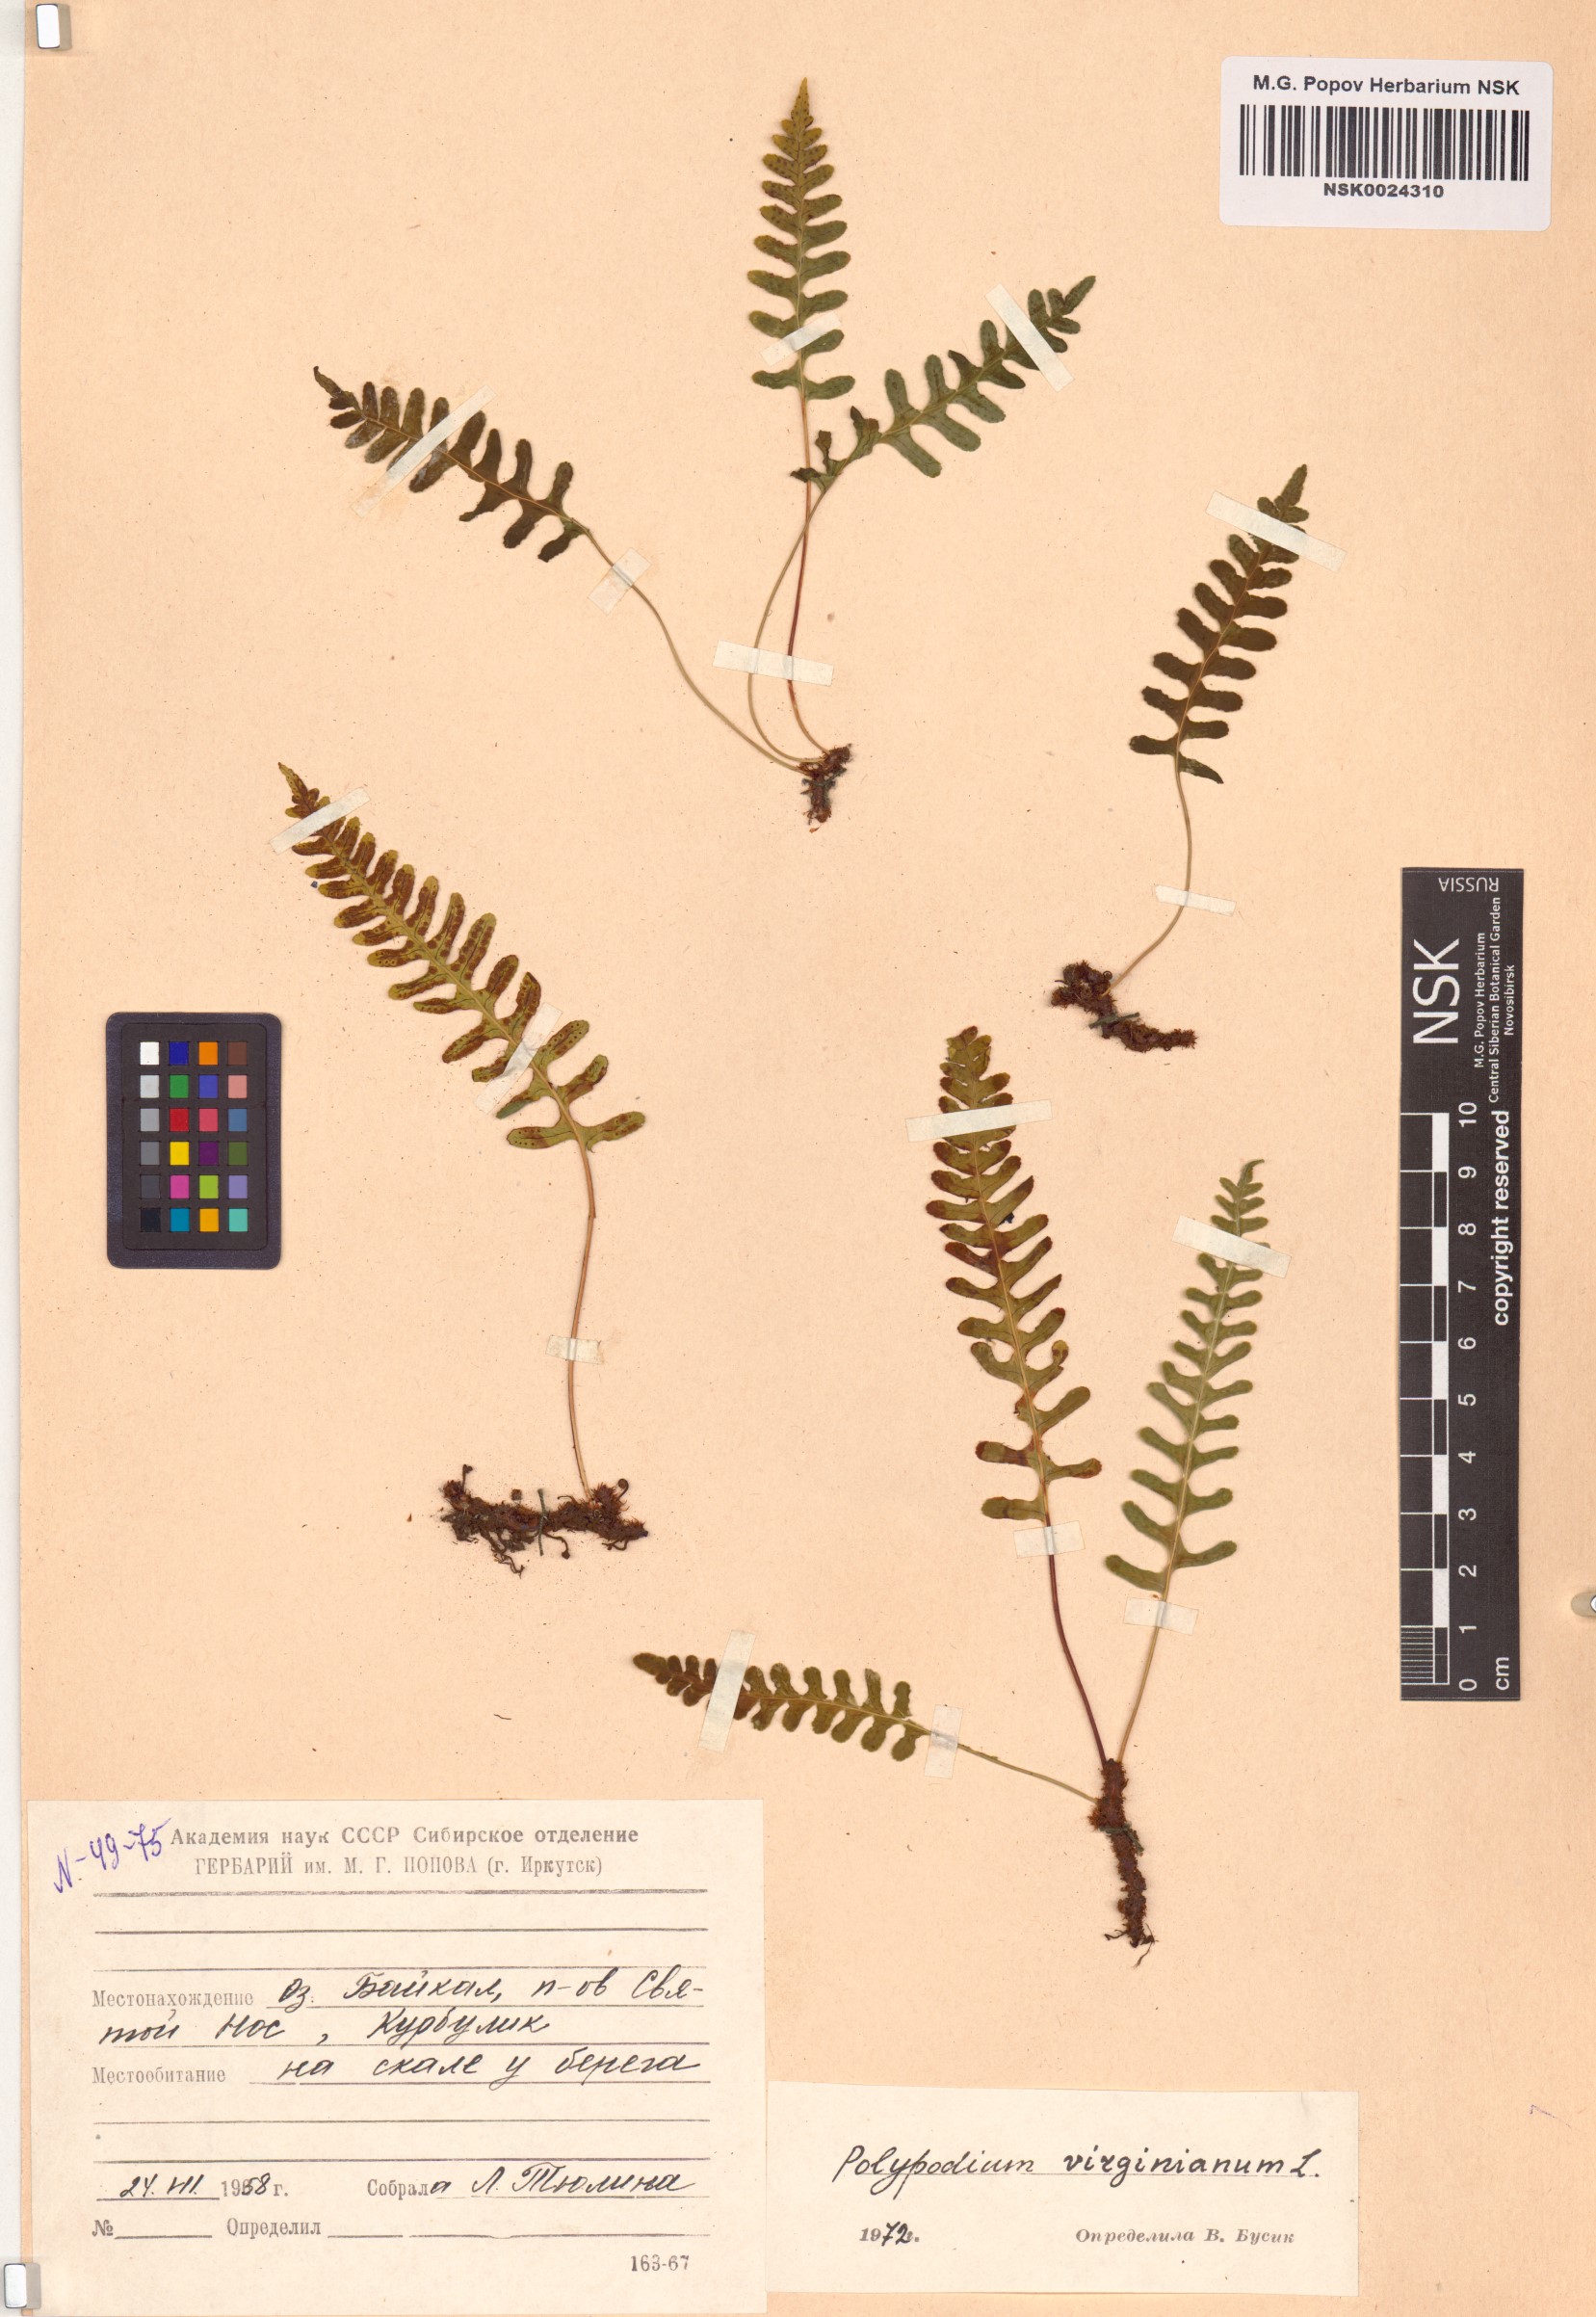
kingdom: Plantae
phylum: Tracheophyta
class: Polypodiopsida
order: Polypodiales
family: Polypodiaceae
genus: Polypodium
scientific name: Polypodium virginianum
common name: American wall fern
